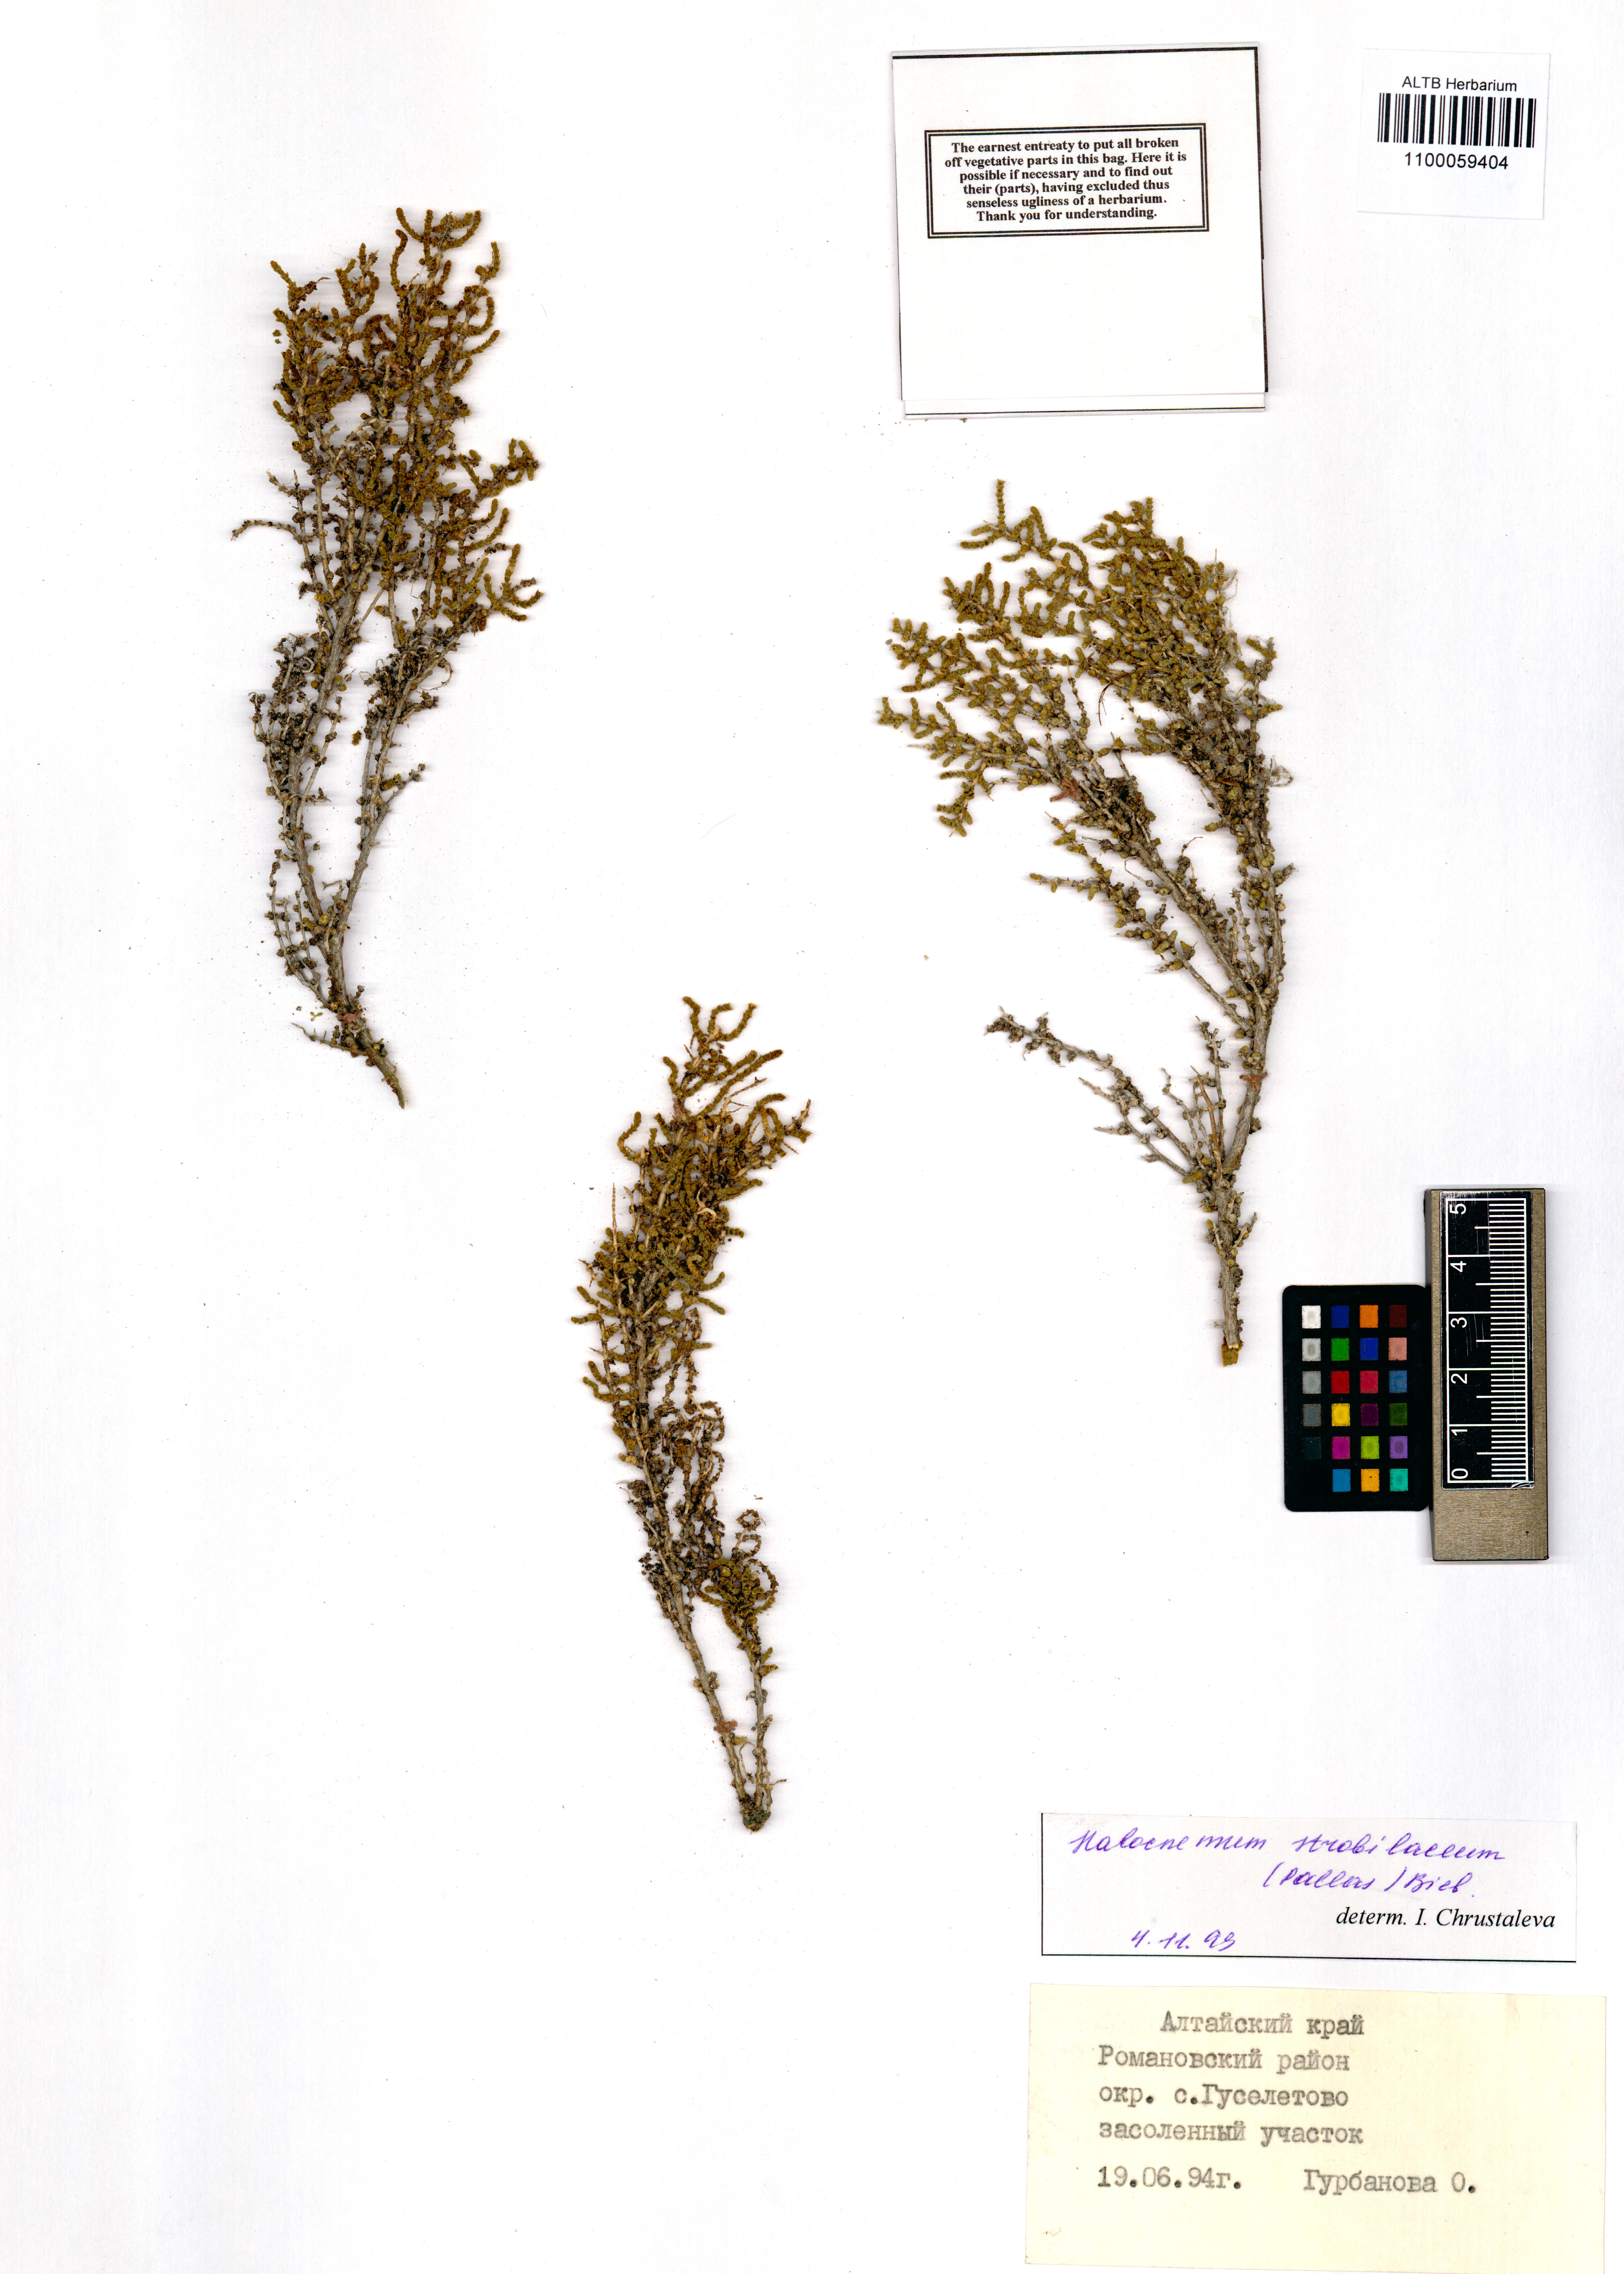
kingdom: Plantae
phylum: Tracheophyta
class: Magnoliopsida
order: Caryophyllales
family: Amaranthaceae
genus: Halocnemum
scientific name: Halocnemum strobilaceum
